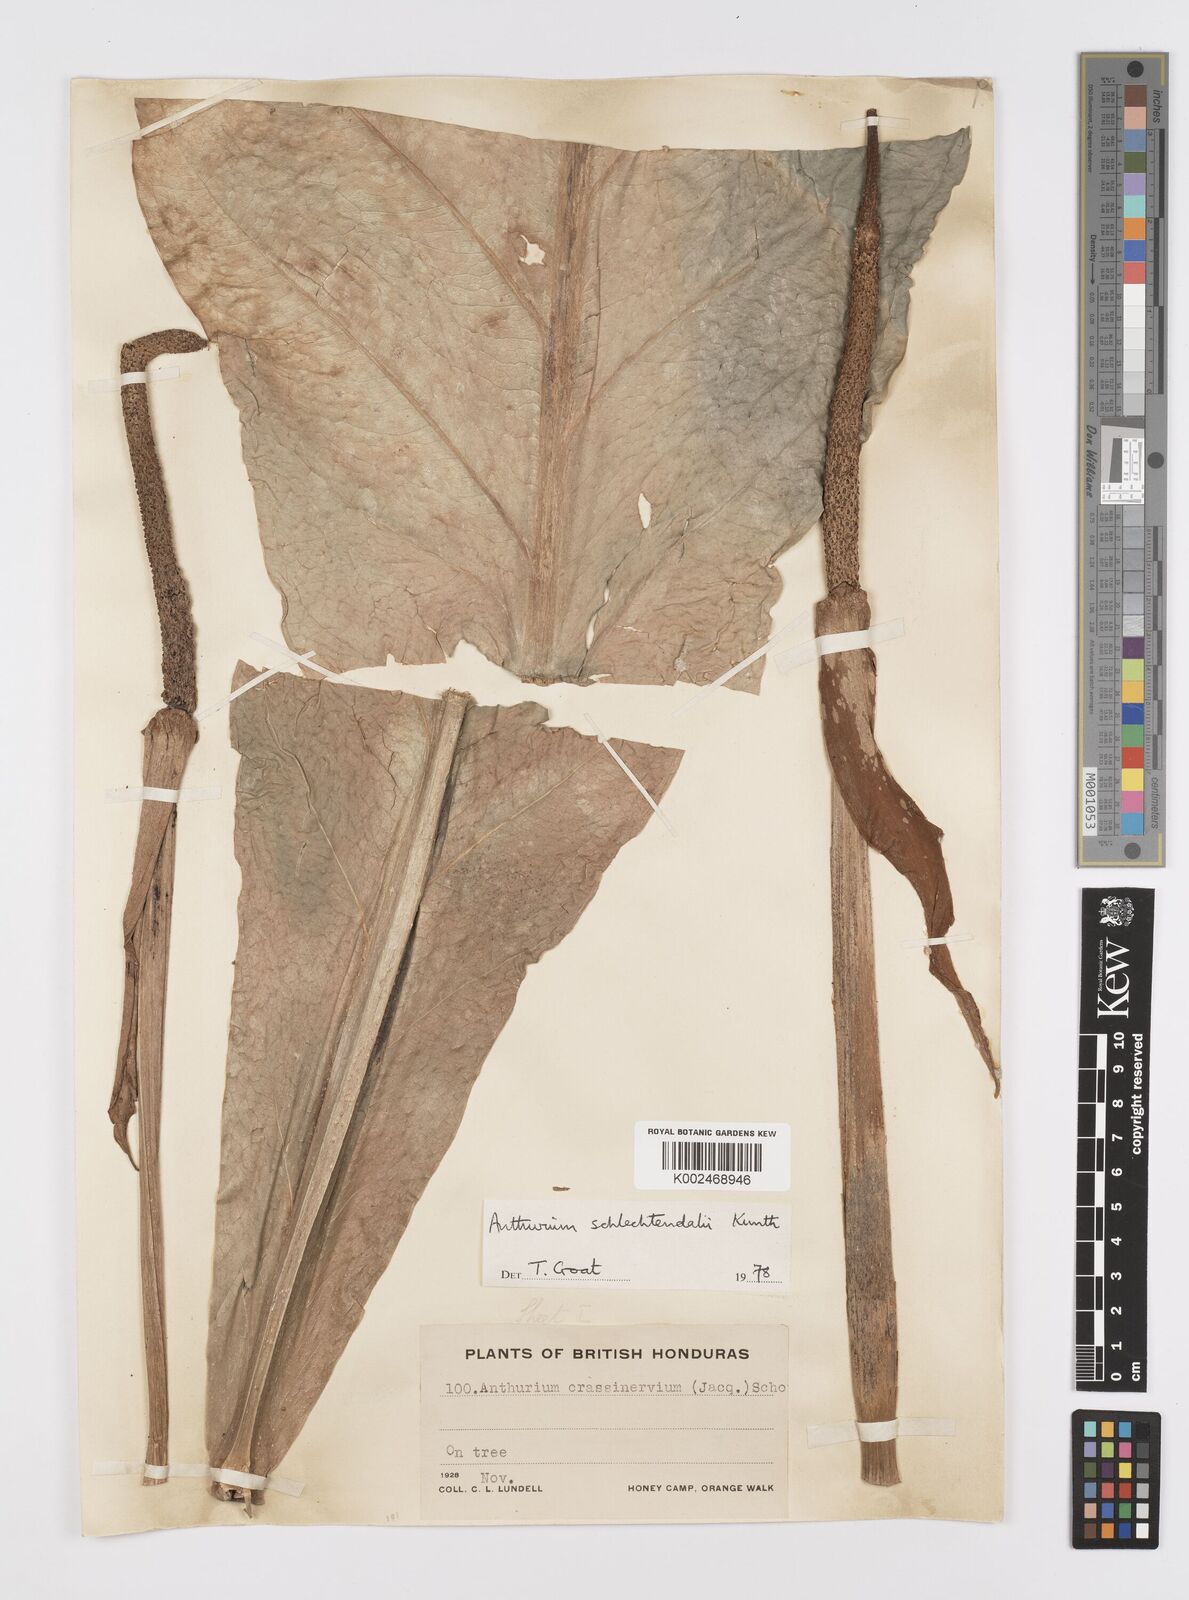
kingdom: Plantae
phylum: Tracheophyta
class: Liliopsida
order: Alismatales
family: Araceae
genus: Anthurium
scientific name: Anthurium schlechtendalii
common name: Laceleaf
